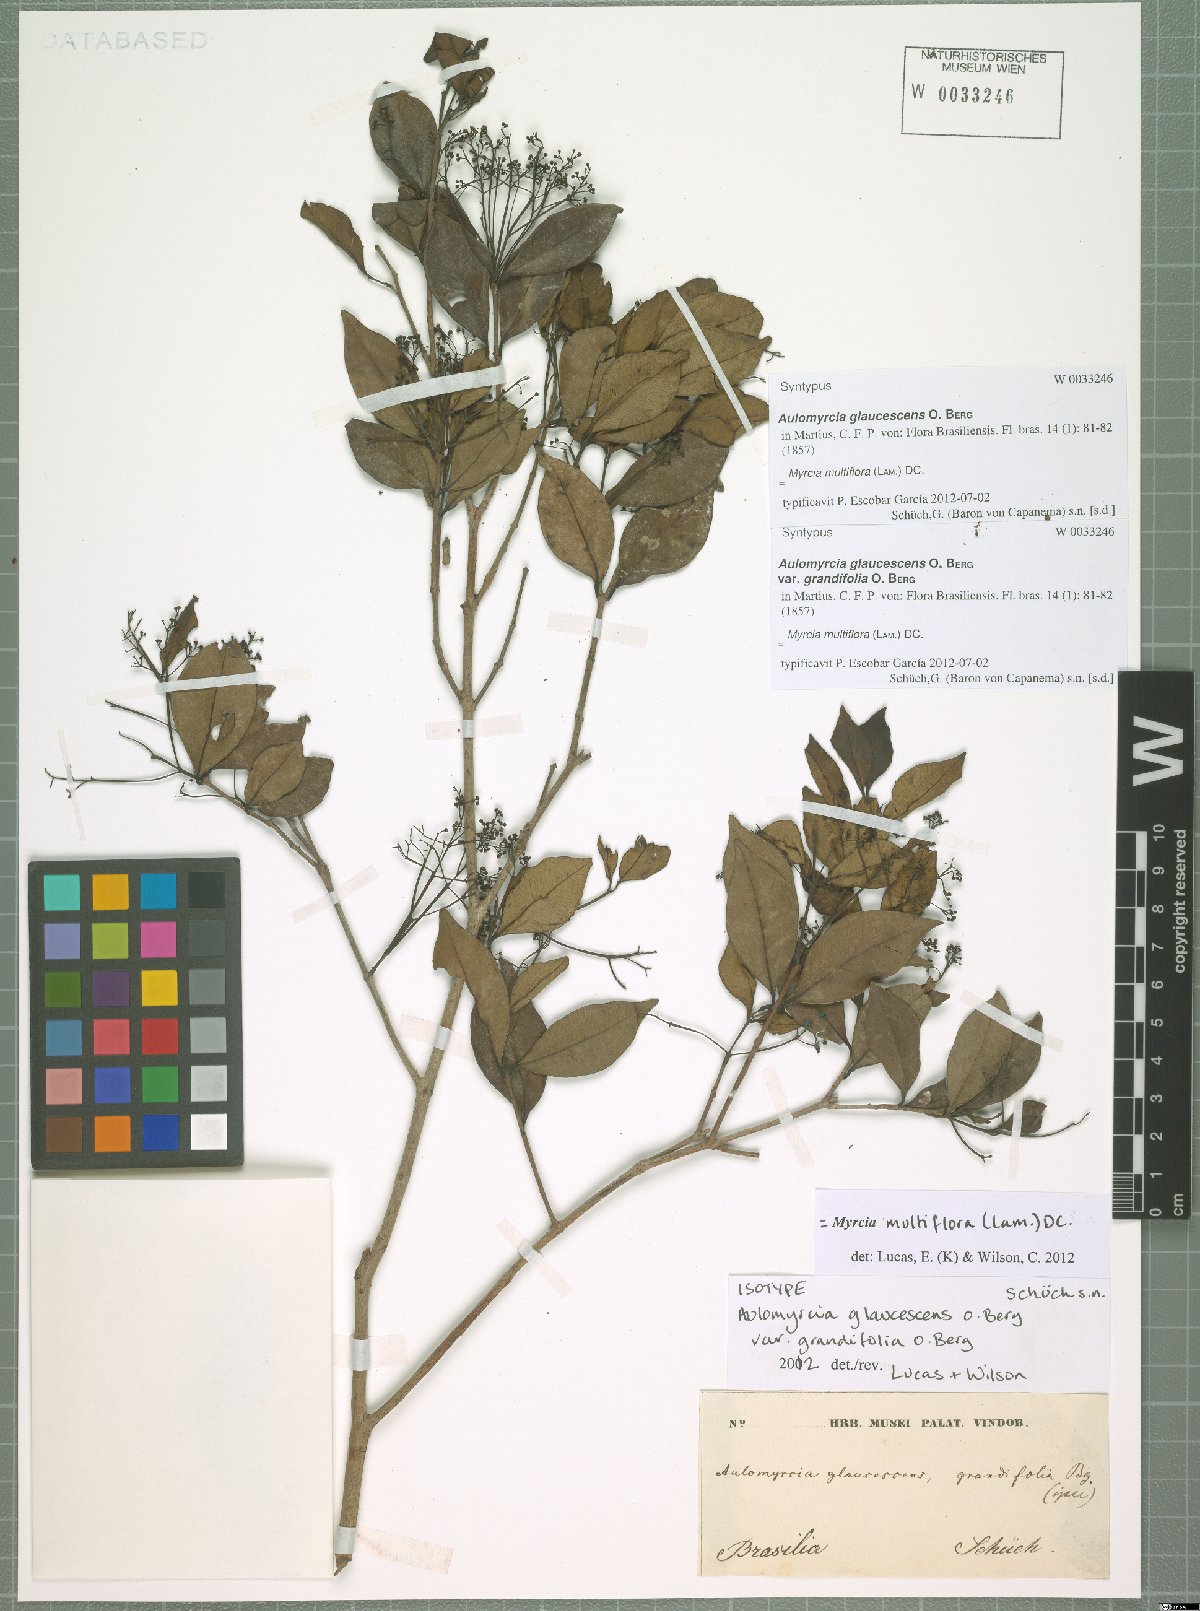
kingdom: Plantae
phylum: Tracheophyta
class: Magnoliopsida
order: Myrtales
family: Myrtaceae
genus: Myrcia
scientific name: Myrcia multiflora
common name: Pedra hume
